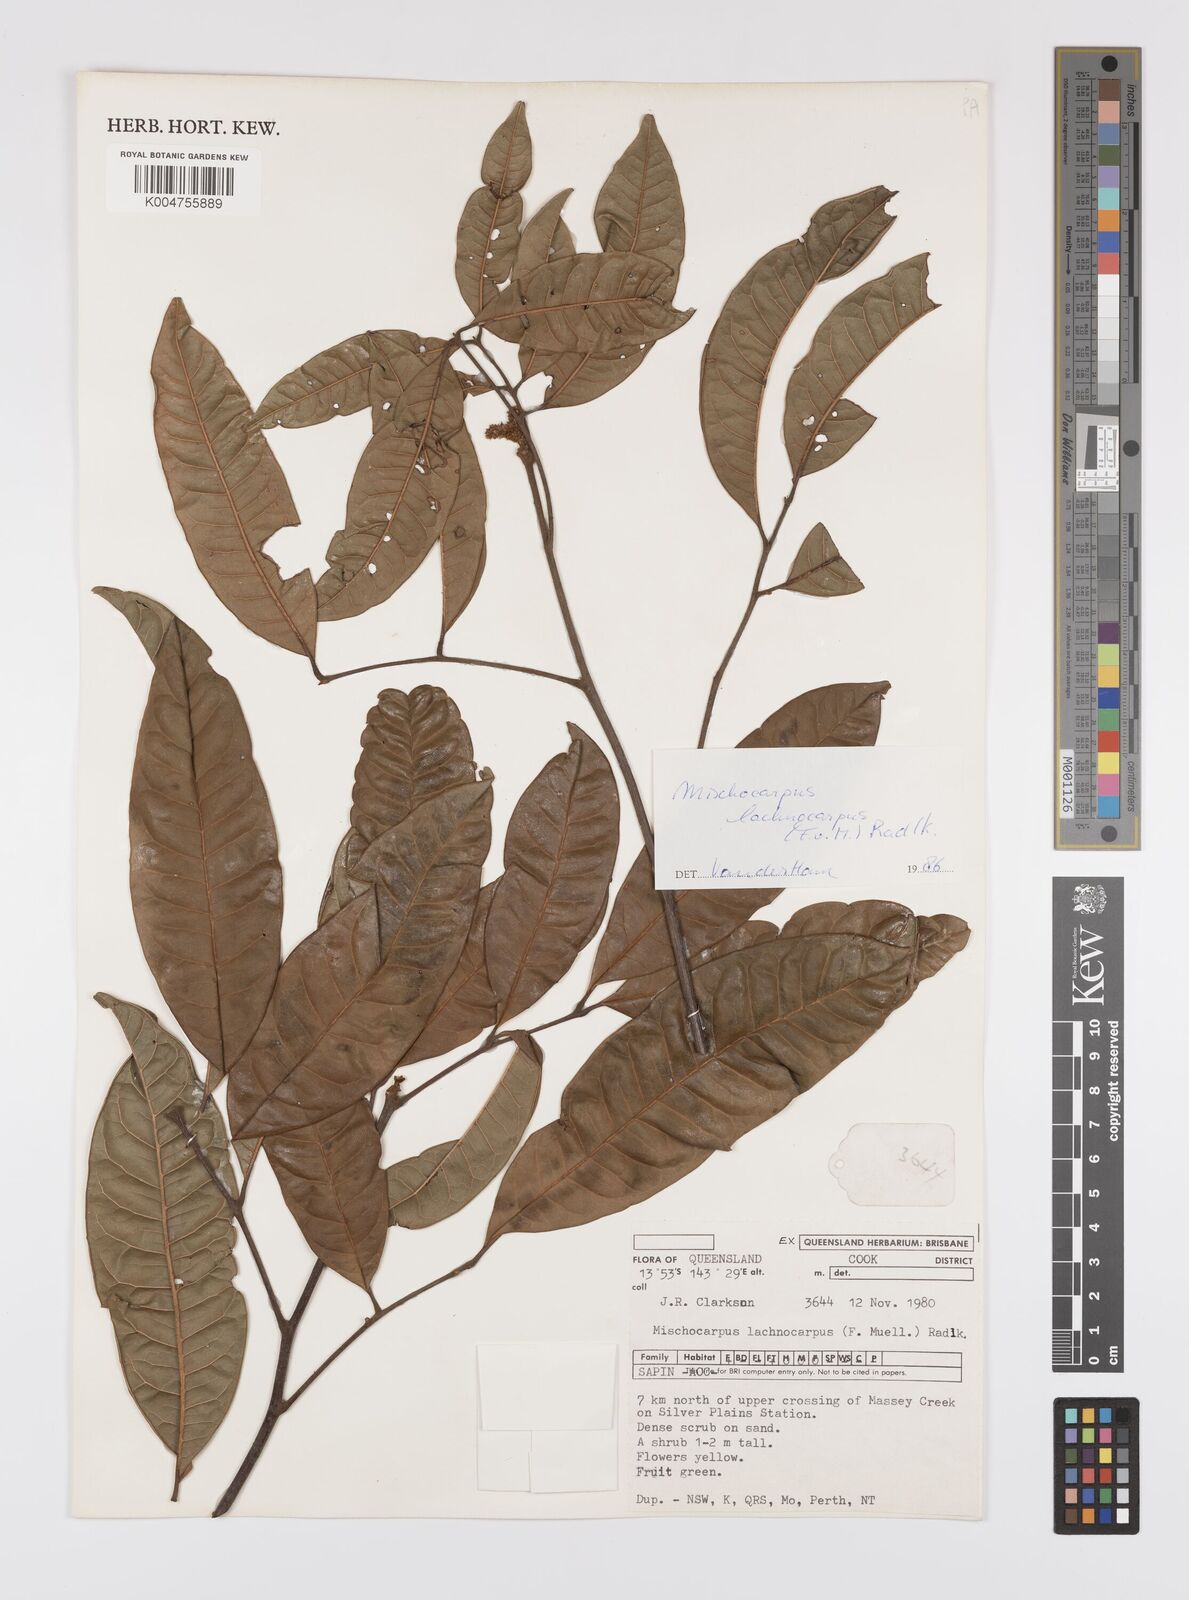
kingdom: Plantae
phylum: Tracheophyta
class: Magnoliopsida
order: Sapindales
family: Sapindaceae
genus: Mischocarpus
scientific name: Mischocarpus lachnocarpus
